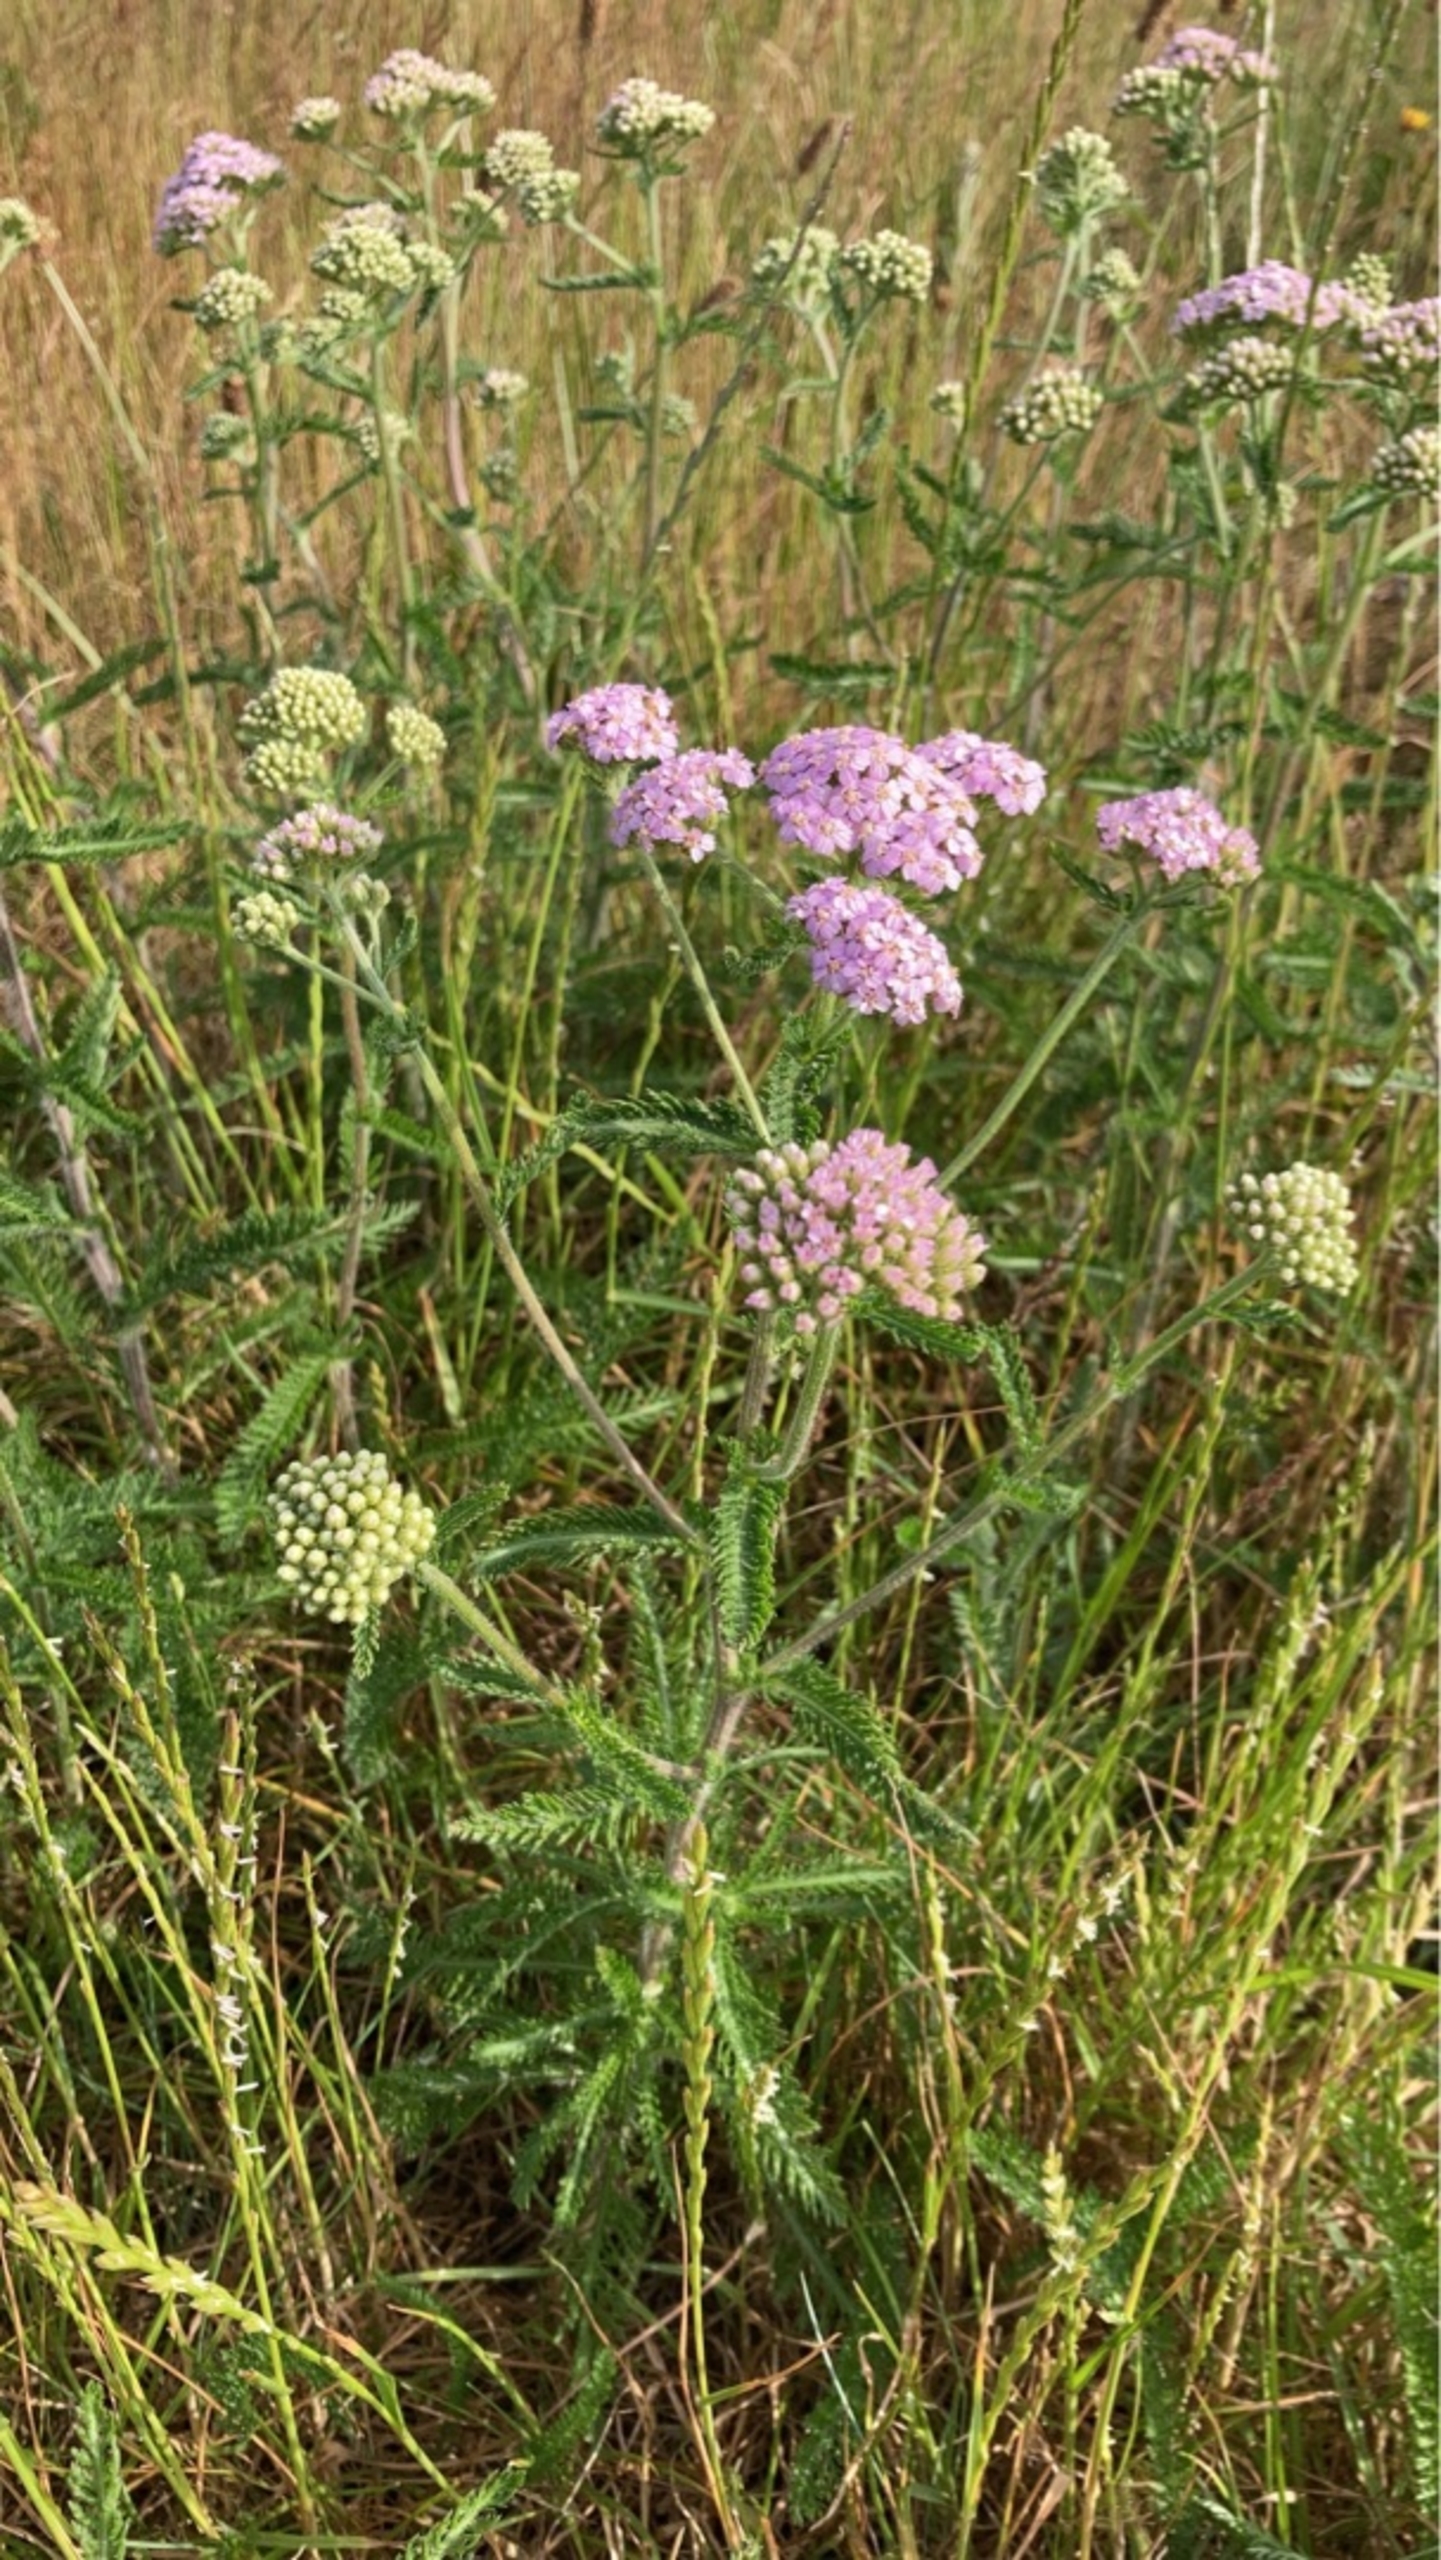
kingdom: Plantae
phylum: Tracheophyta
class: Magnoliopsida
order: Asterales
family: Asteraceae
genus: Achillea
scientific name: Achillea millefolium
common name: Almindelig røllike
